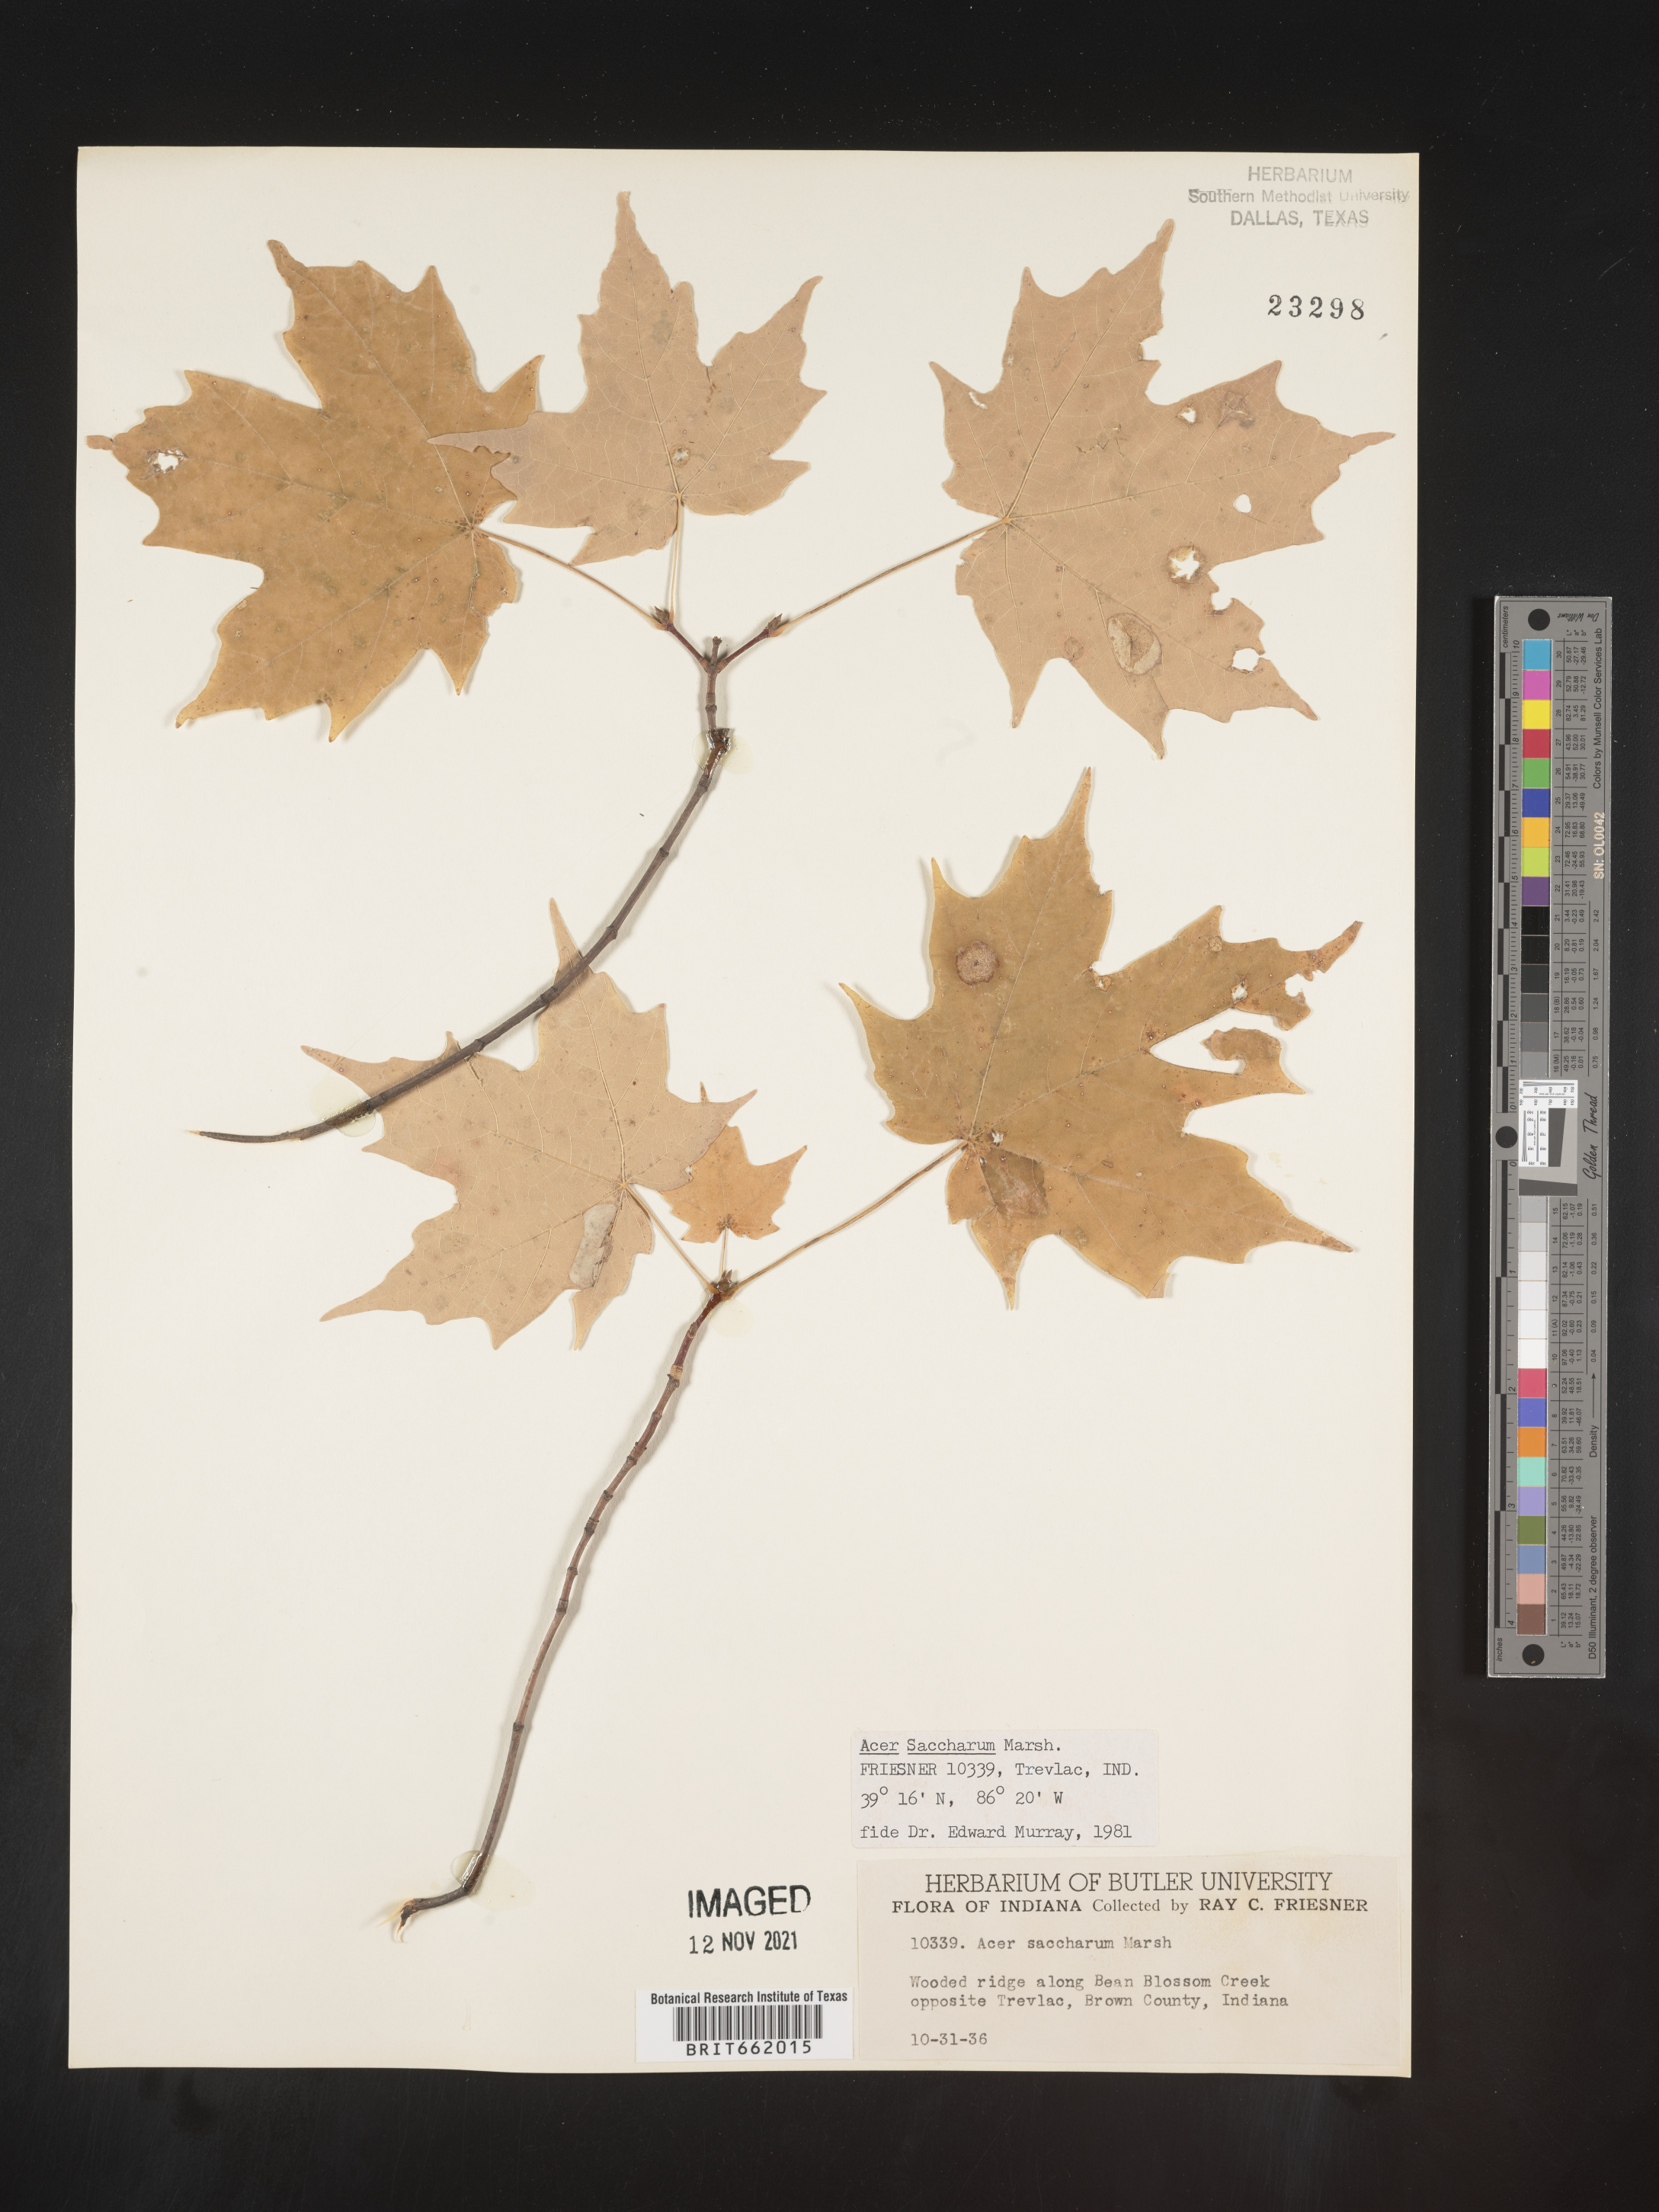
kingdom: Plantae
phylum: Tracheophyta
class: Magnoliopsida
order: Sapindales
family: Sapindaceae
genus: Acer
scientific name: Acer saccharum
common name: Sugar maple
